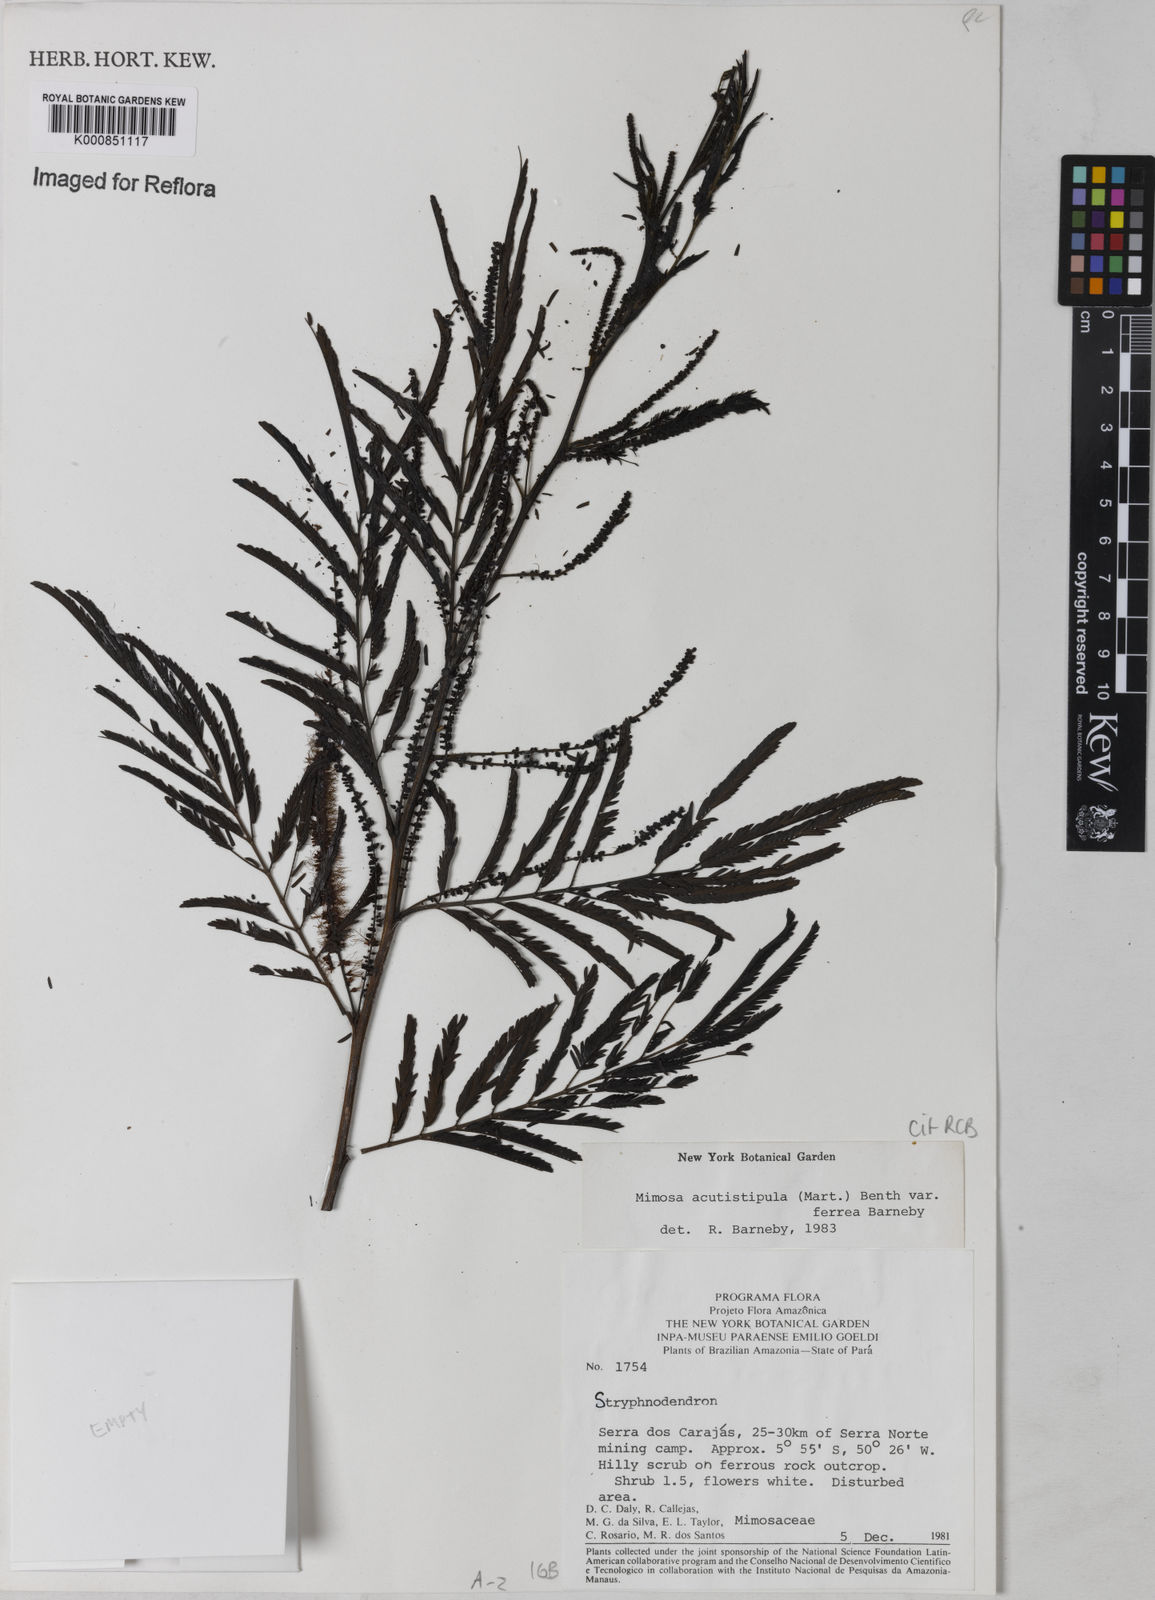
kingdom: Plantae
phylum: Tracheophyta
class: Magnoliopsida
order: Fabales
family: Fabaceae
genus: Mimosa
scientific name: Mimosa acutistipula
